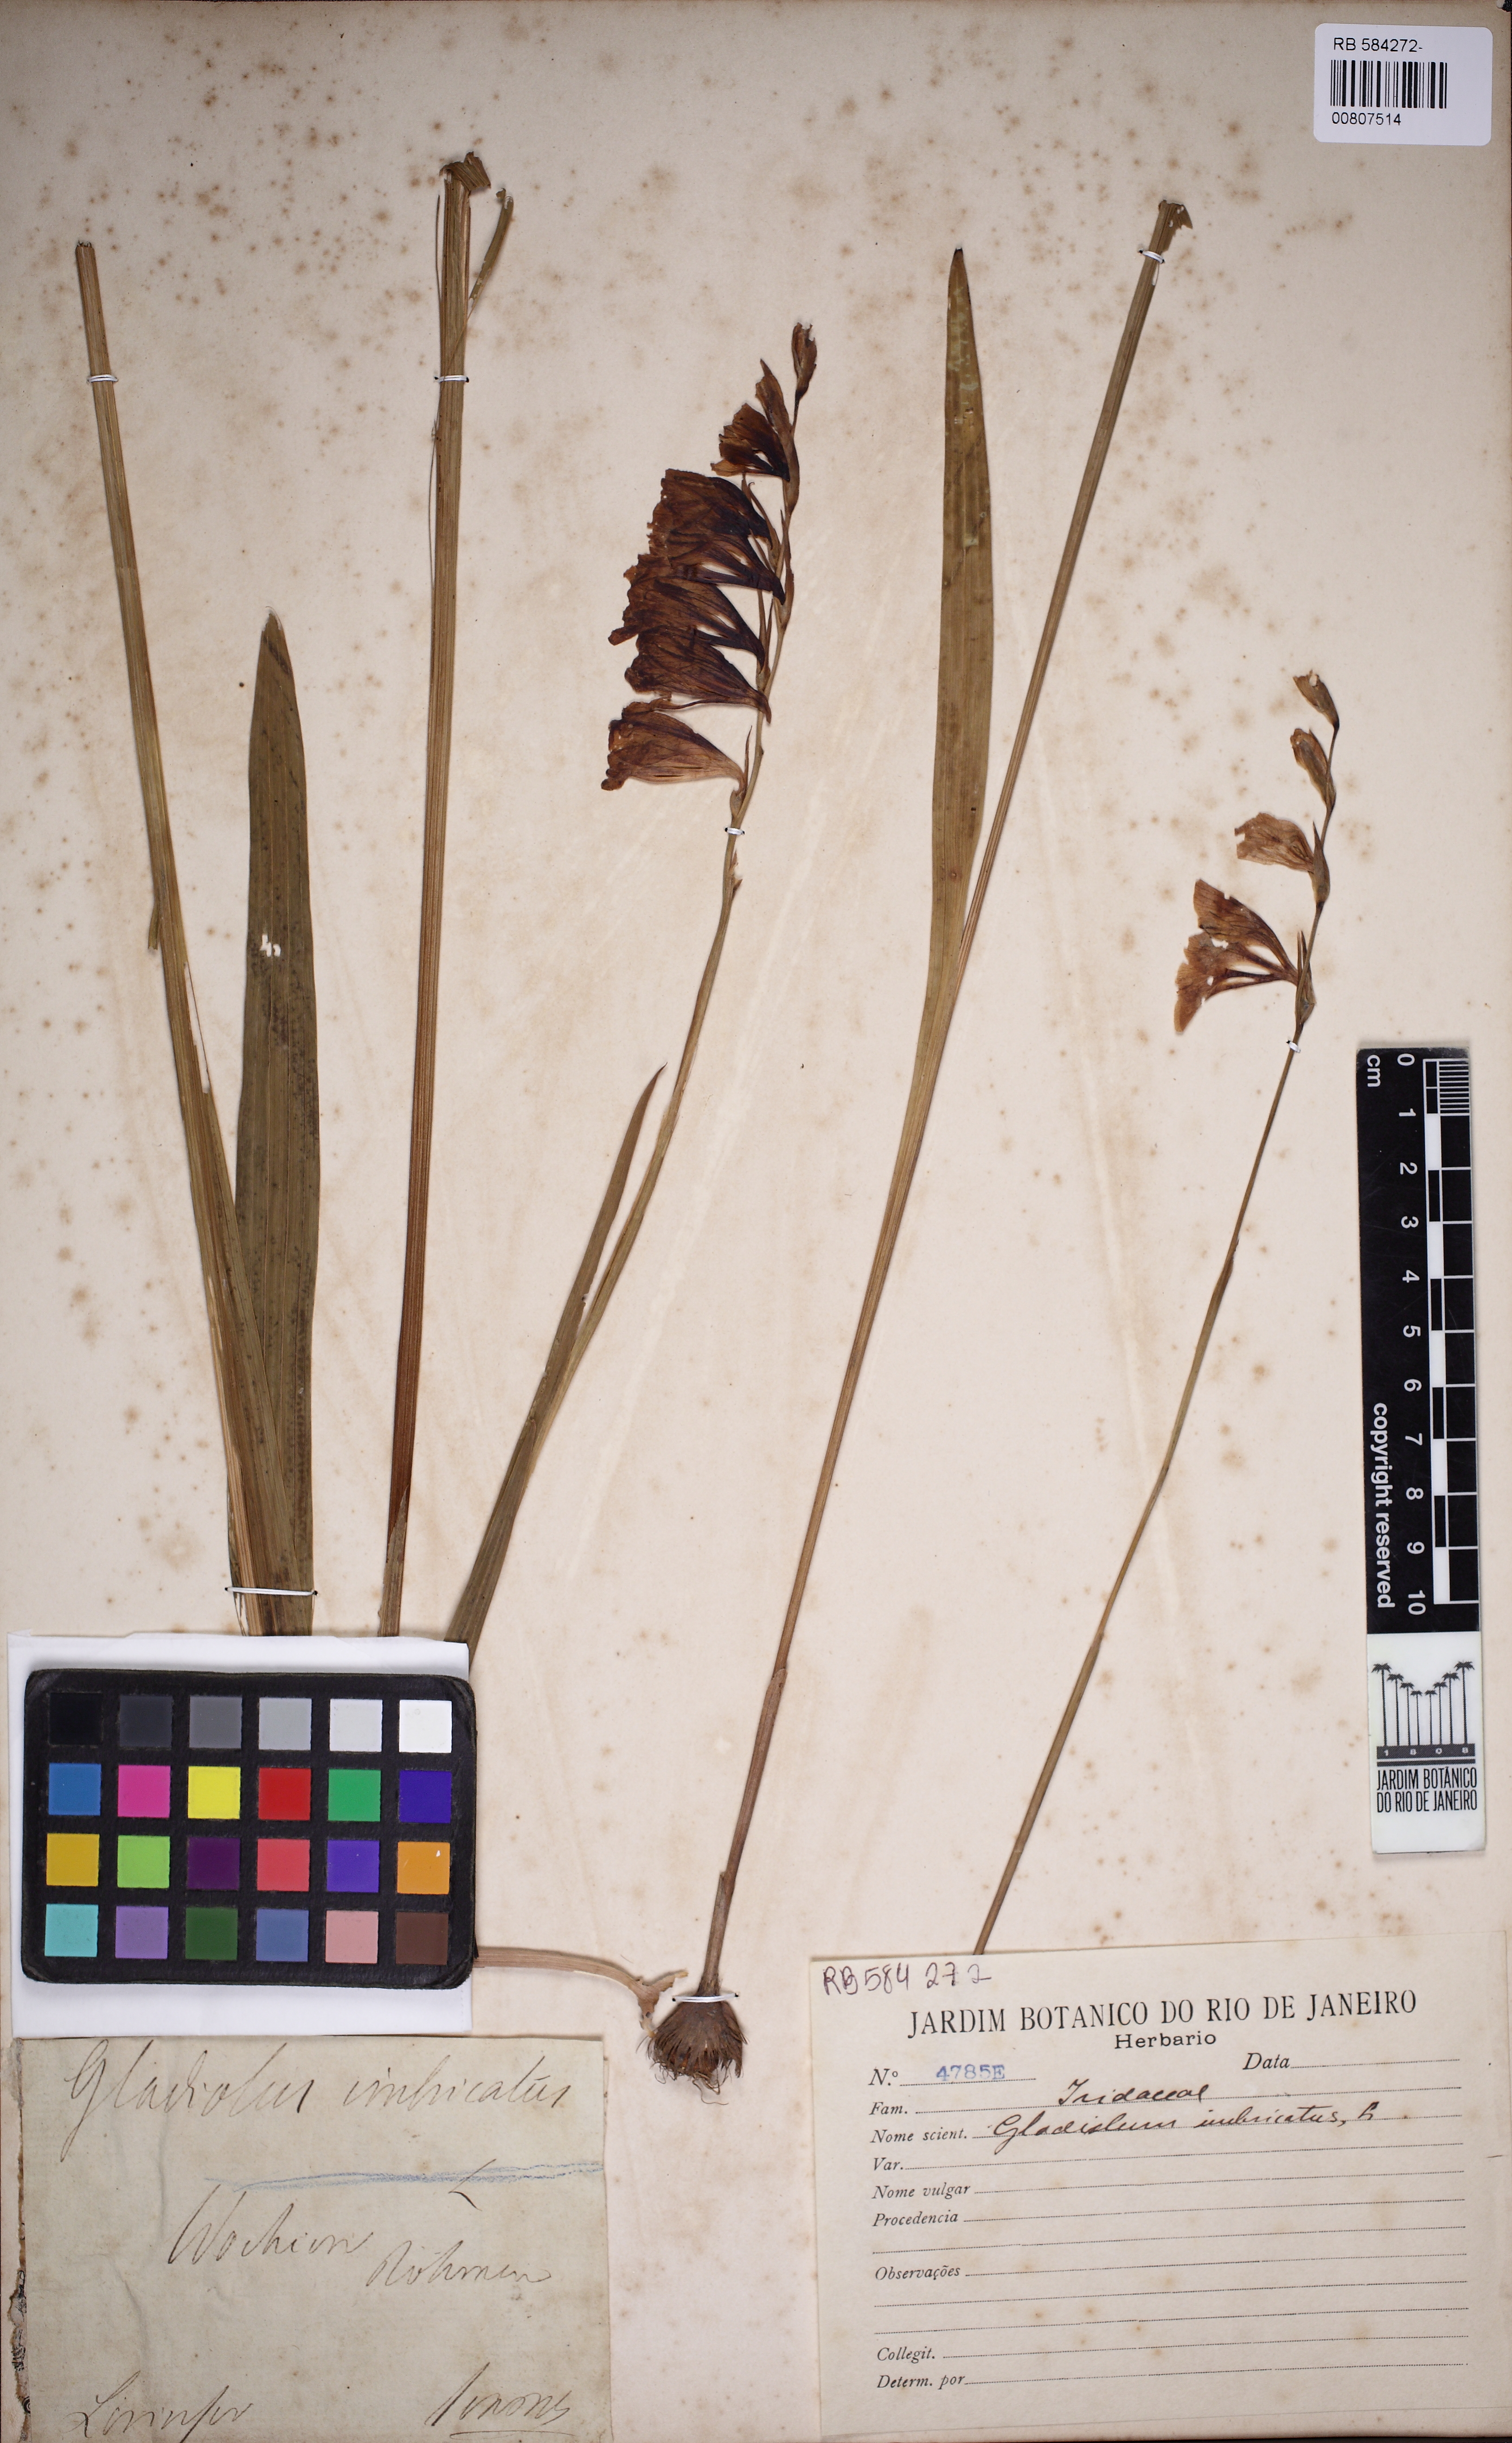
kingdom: Plantae
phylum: Tracheophyta
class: Liliopsida
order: Asparagales
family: Iridaceae
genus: Gladiolus
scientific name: Gladiolus imbricatus
